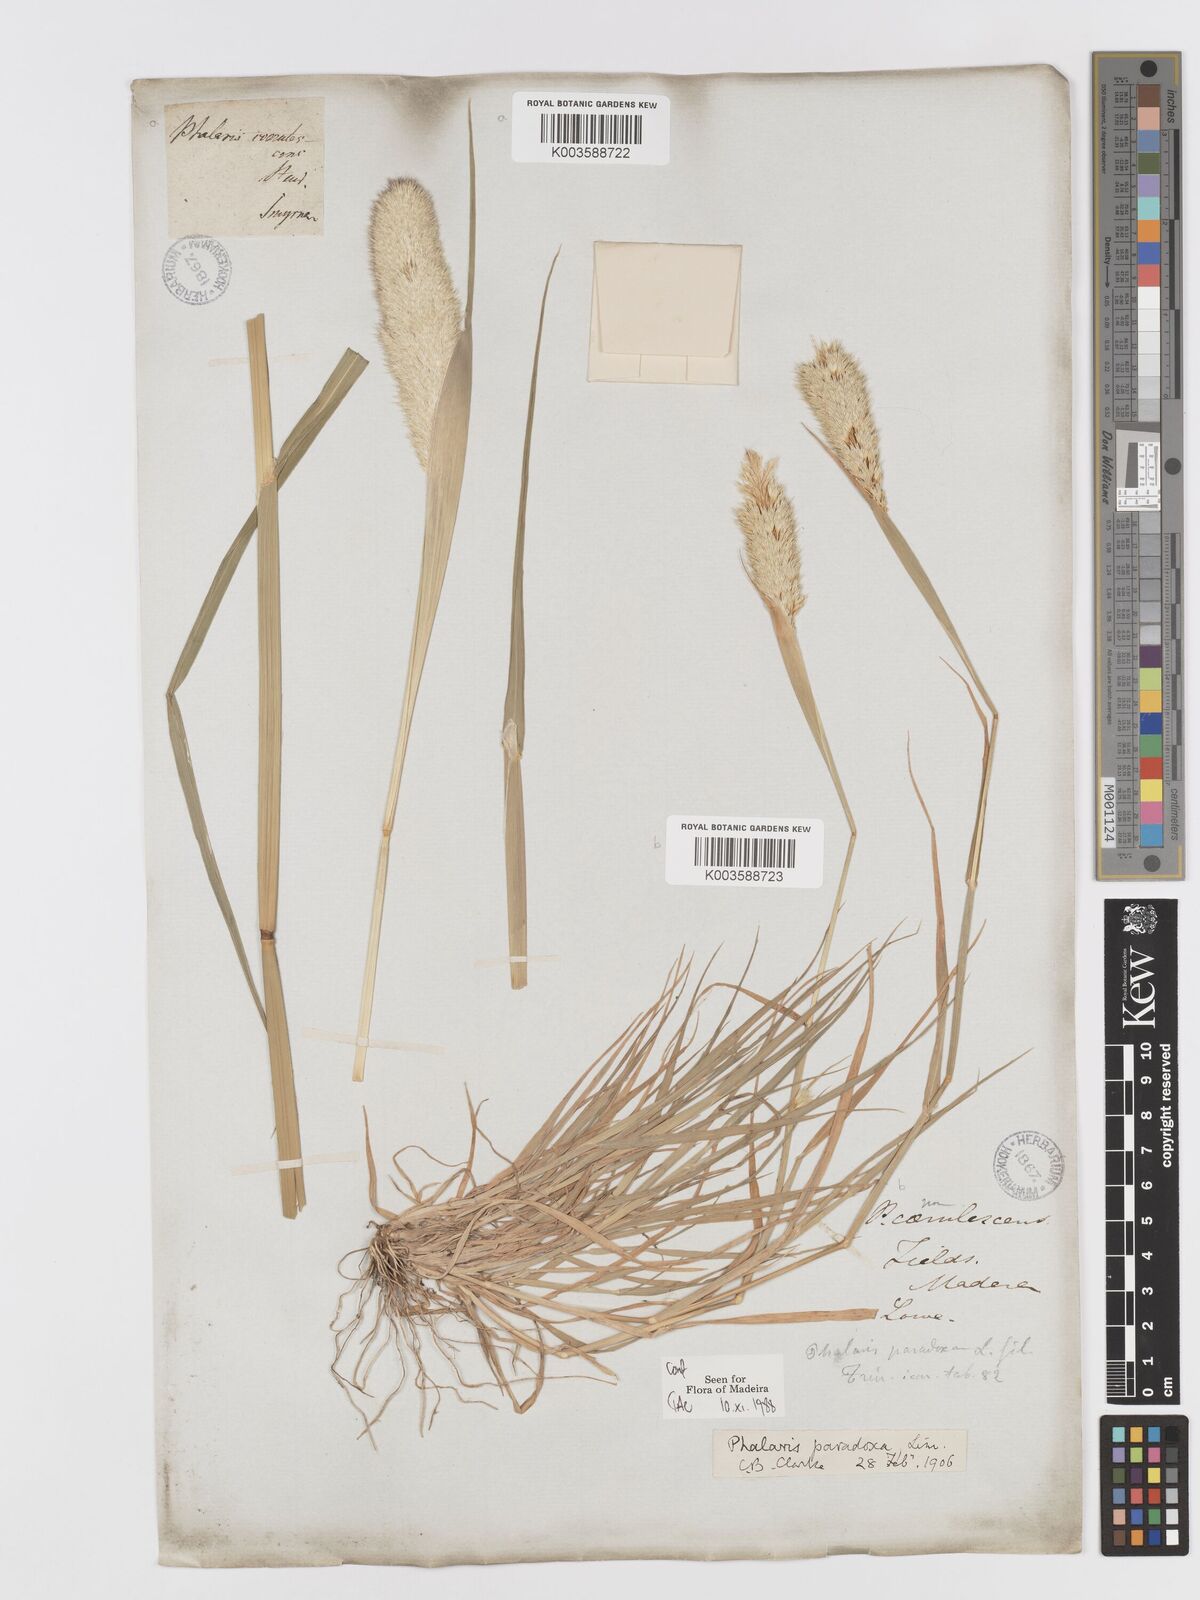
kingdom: Plantae
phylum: Tracheophyta
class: Liliopsida
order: Poales
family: Poaceae
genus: Phalaris
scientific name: Phalaris paradoxa
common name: Awned canary-grass
